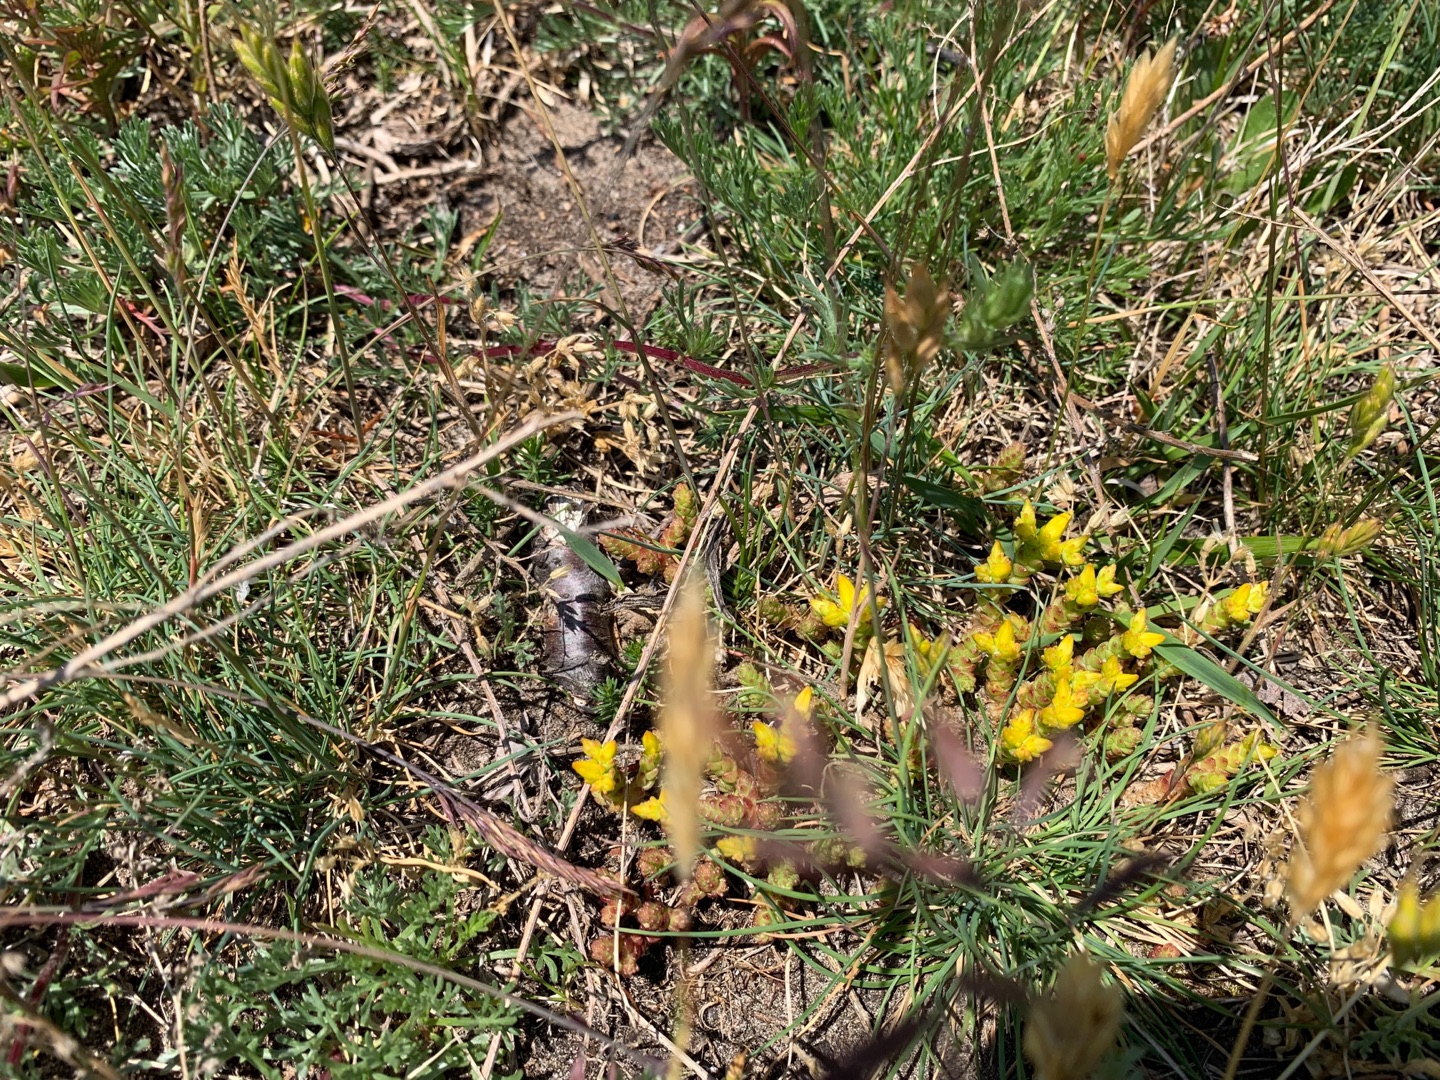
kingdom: Plantae
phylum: Tracheophyta
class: Magnoliopsida
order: Saxifragales
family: Crassulaceae
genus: Sedum
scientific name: Sedum acre
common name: Bidende stenurt
